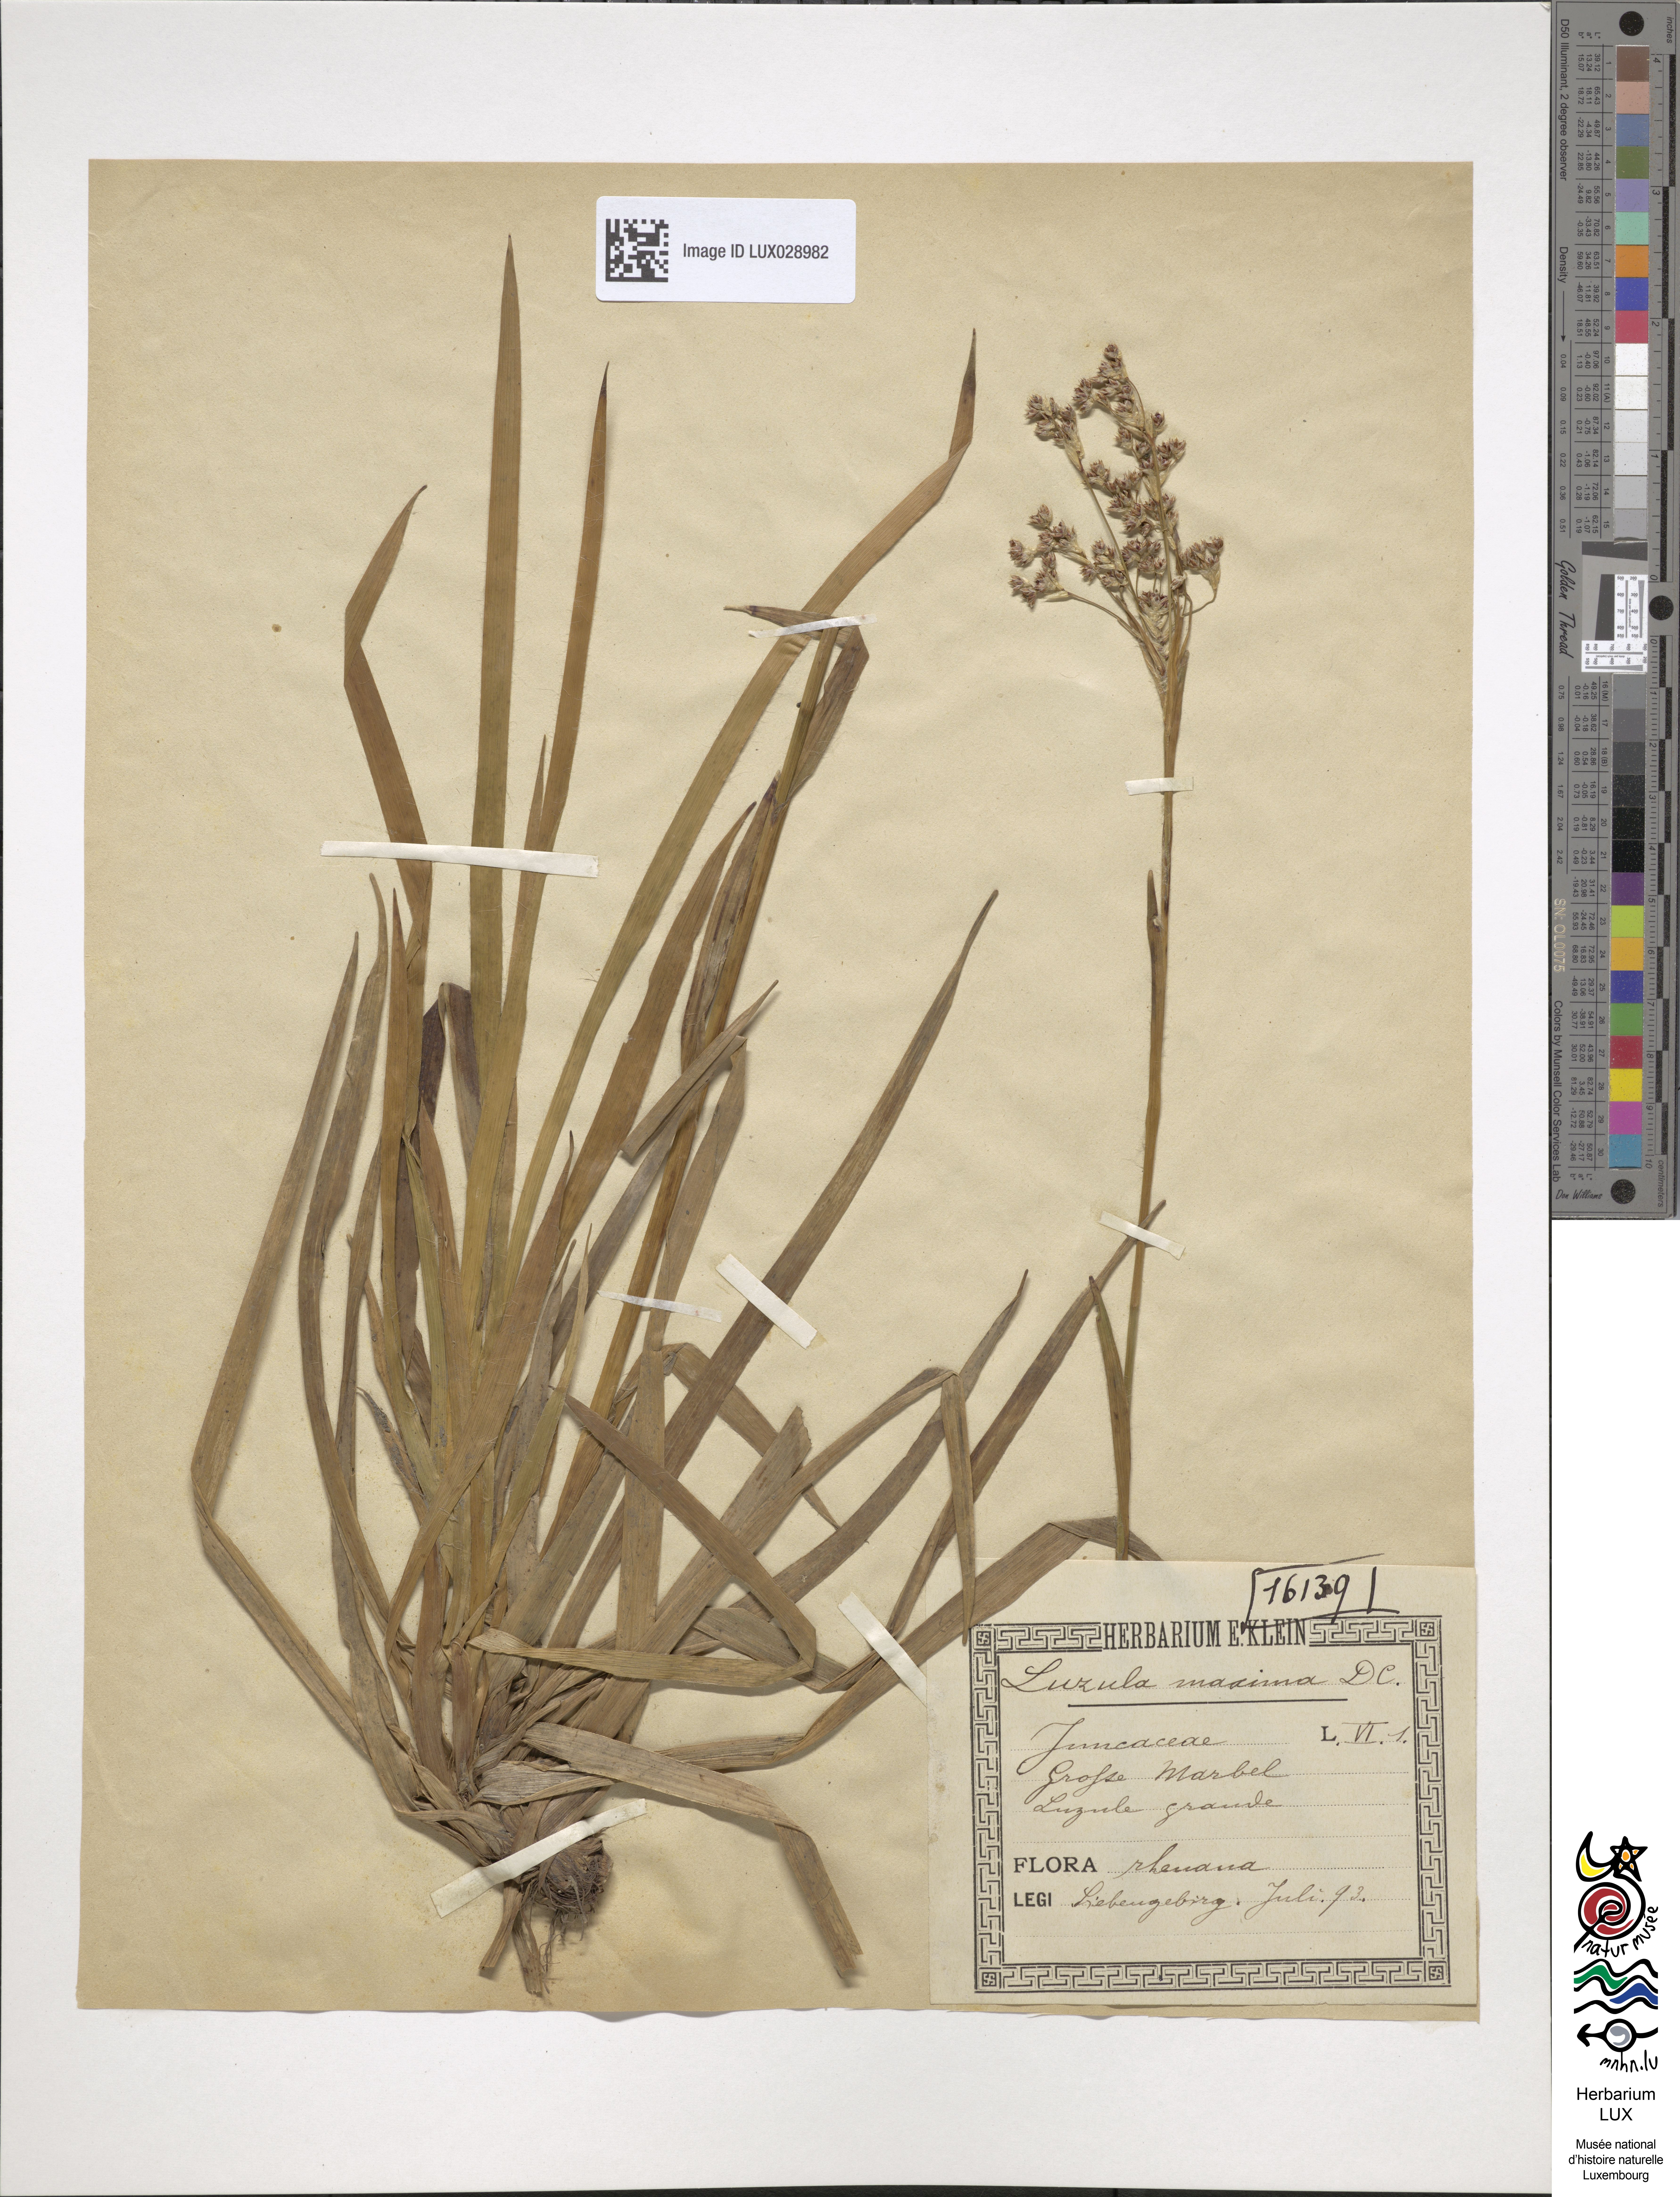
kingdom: Plantae
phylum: Tracheophyta
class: Liliopsida
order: Poales
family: Juncaceae
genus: Luzula
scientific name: Luzula sylvatica
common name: Great wood-rush
